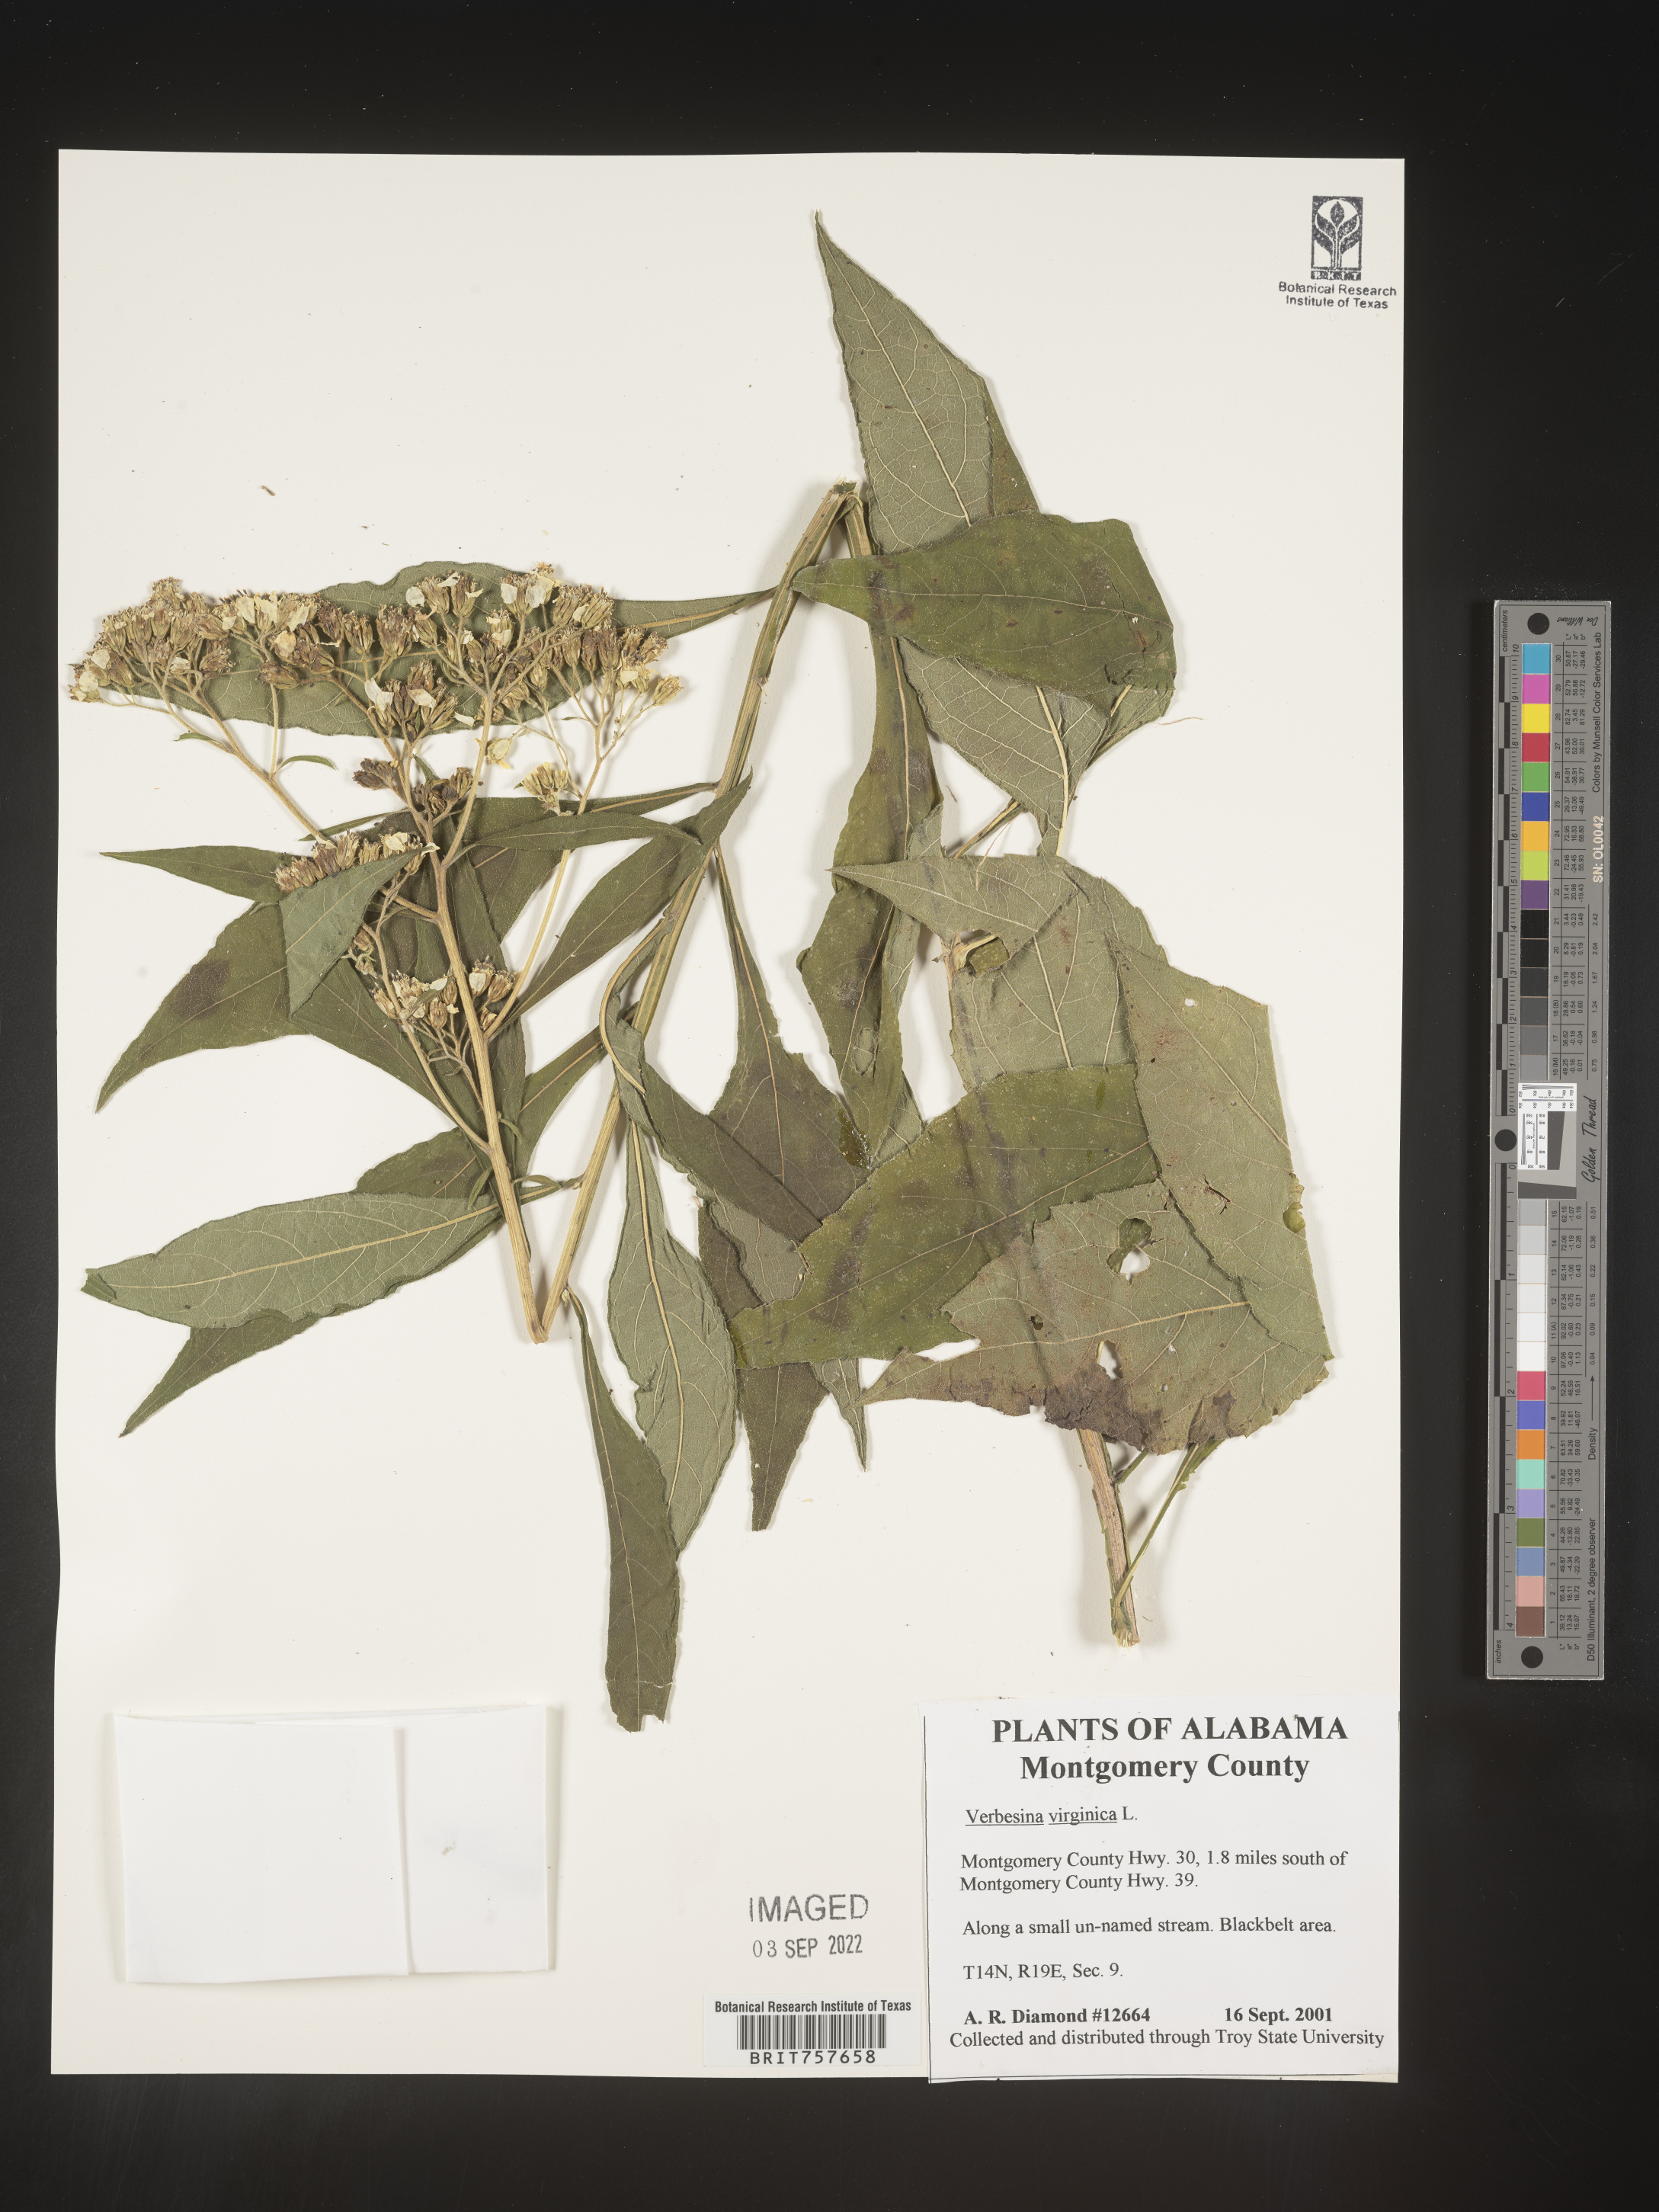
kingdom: Plantae
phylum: Tracheophyta
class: Magnoliopsida
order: Asterales
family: Asteraceae
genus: Verbesina
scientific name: Verbesina virginica
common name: Frostweed
